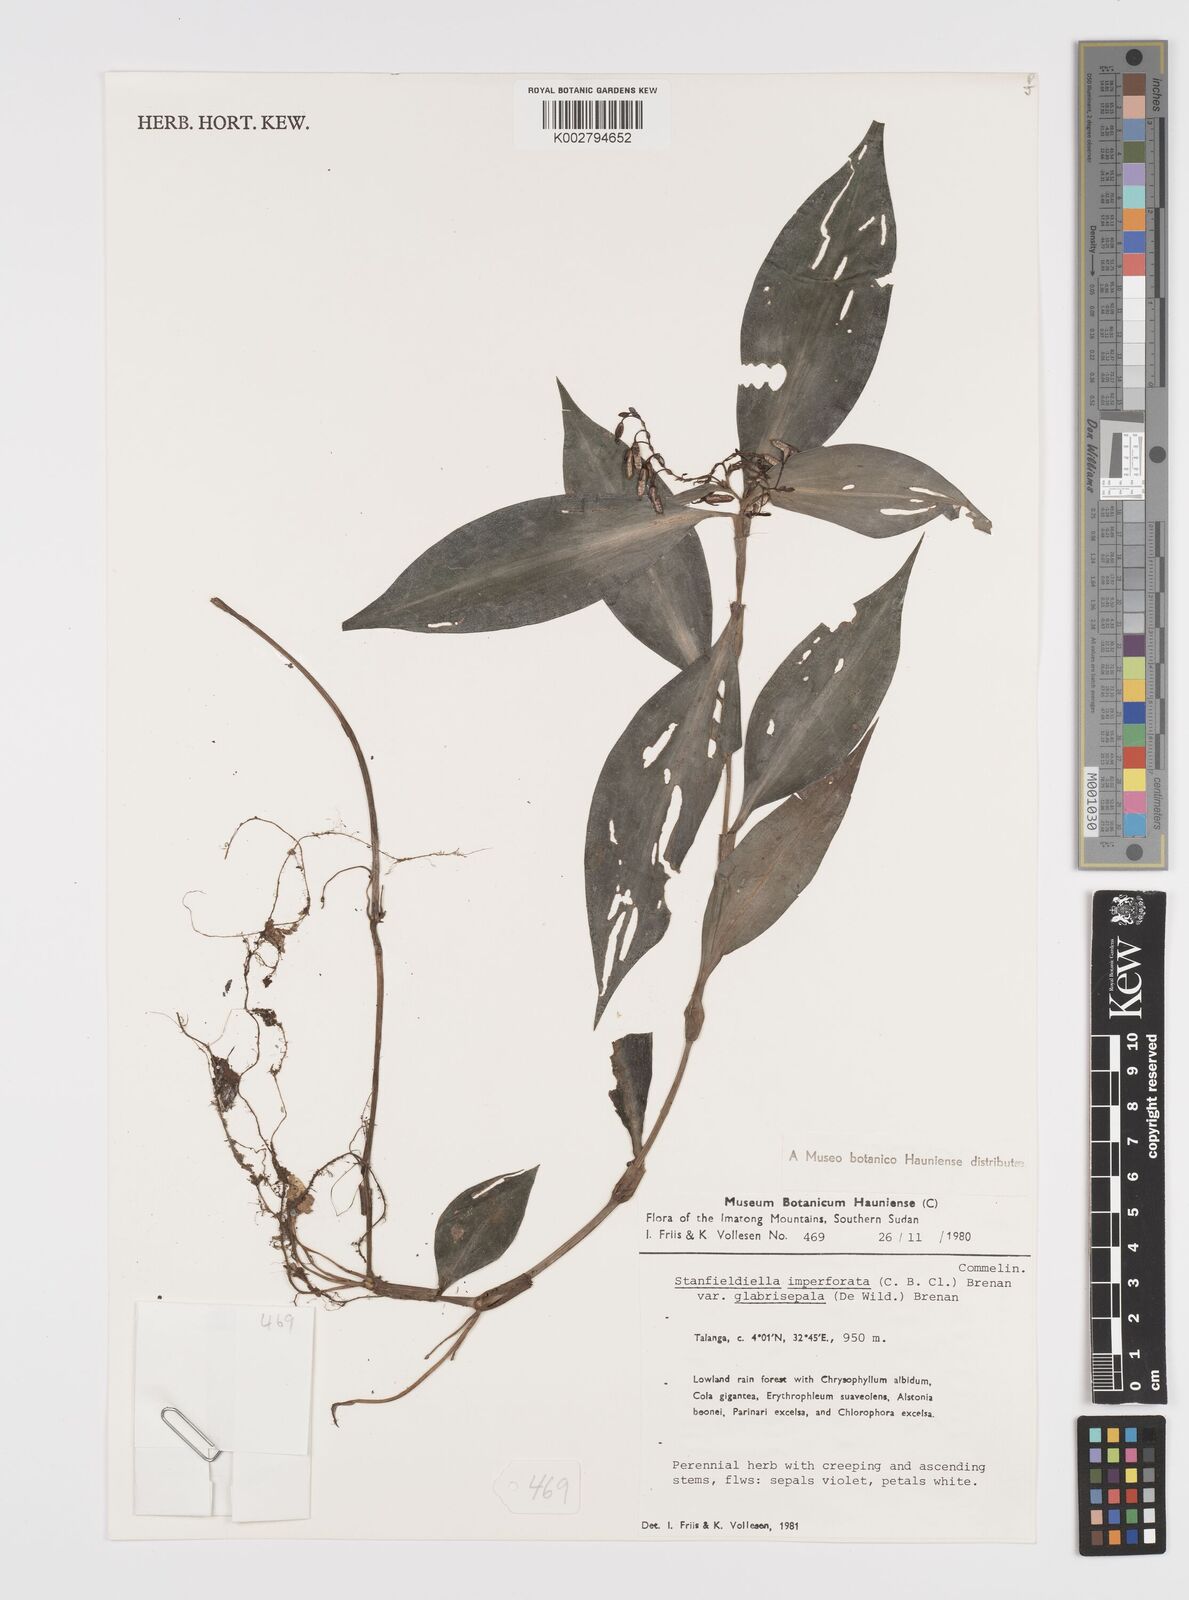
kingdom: Plantae
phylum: Tracheophyta
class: Liliopsida
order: Commelinales
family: Commelinaceae
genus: Stanfieldiella
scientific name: Stanfieldiella imperforata
